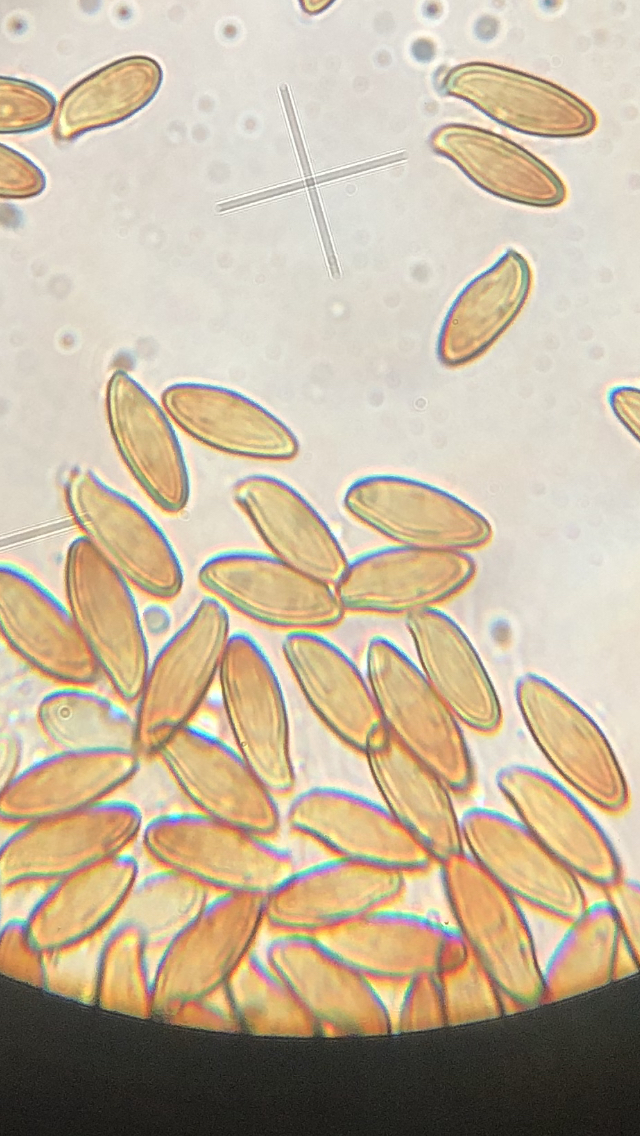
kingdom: Fungi
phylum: Basidiomycota
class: Agaricomycetes
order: Boletales
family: Boletaceae
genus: Xerocomellus
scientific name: Xerocomellus cisalpinus
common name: finsprukken rørhat
